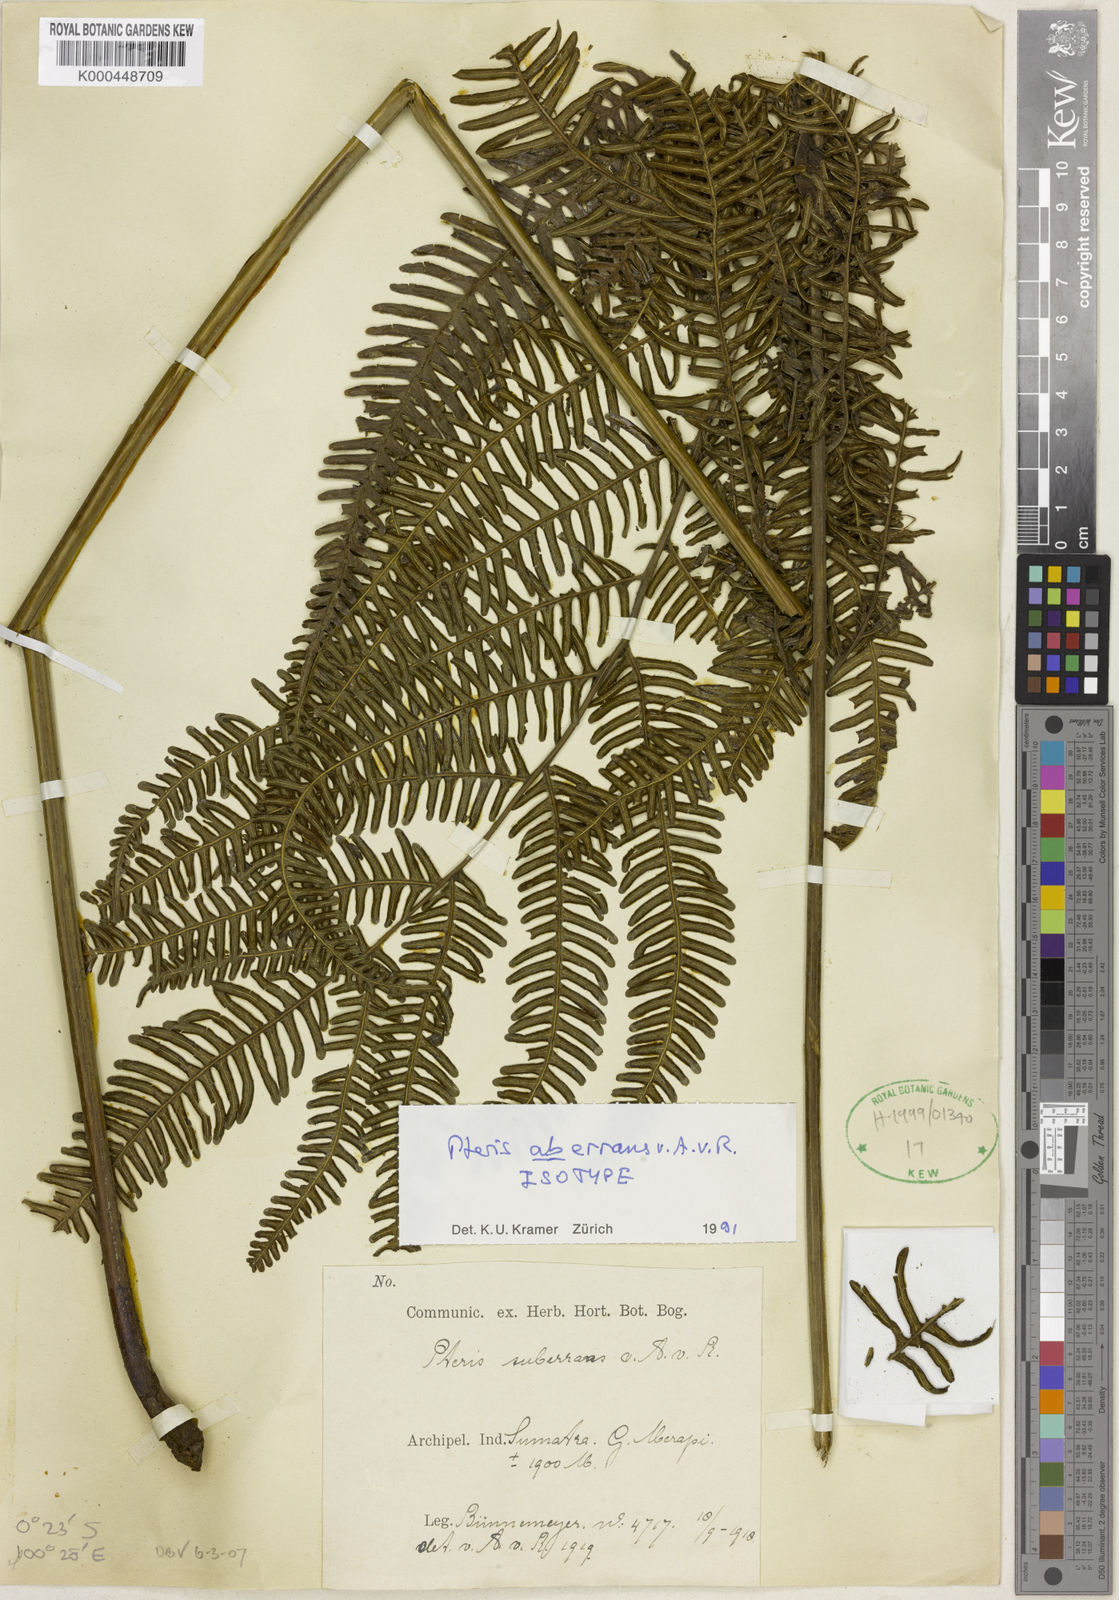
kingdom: Plantae
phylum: Tracheophyta
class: Polypodiopsida
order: Polypodiales
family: Pteridaceae
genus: Pteris
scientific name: Pteris grevilleana
